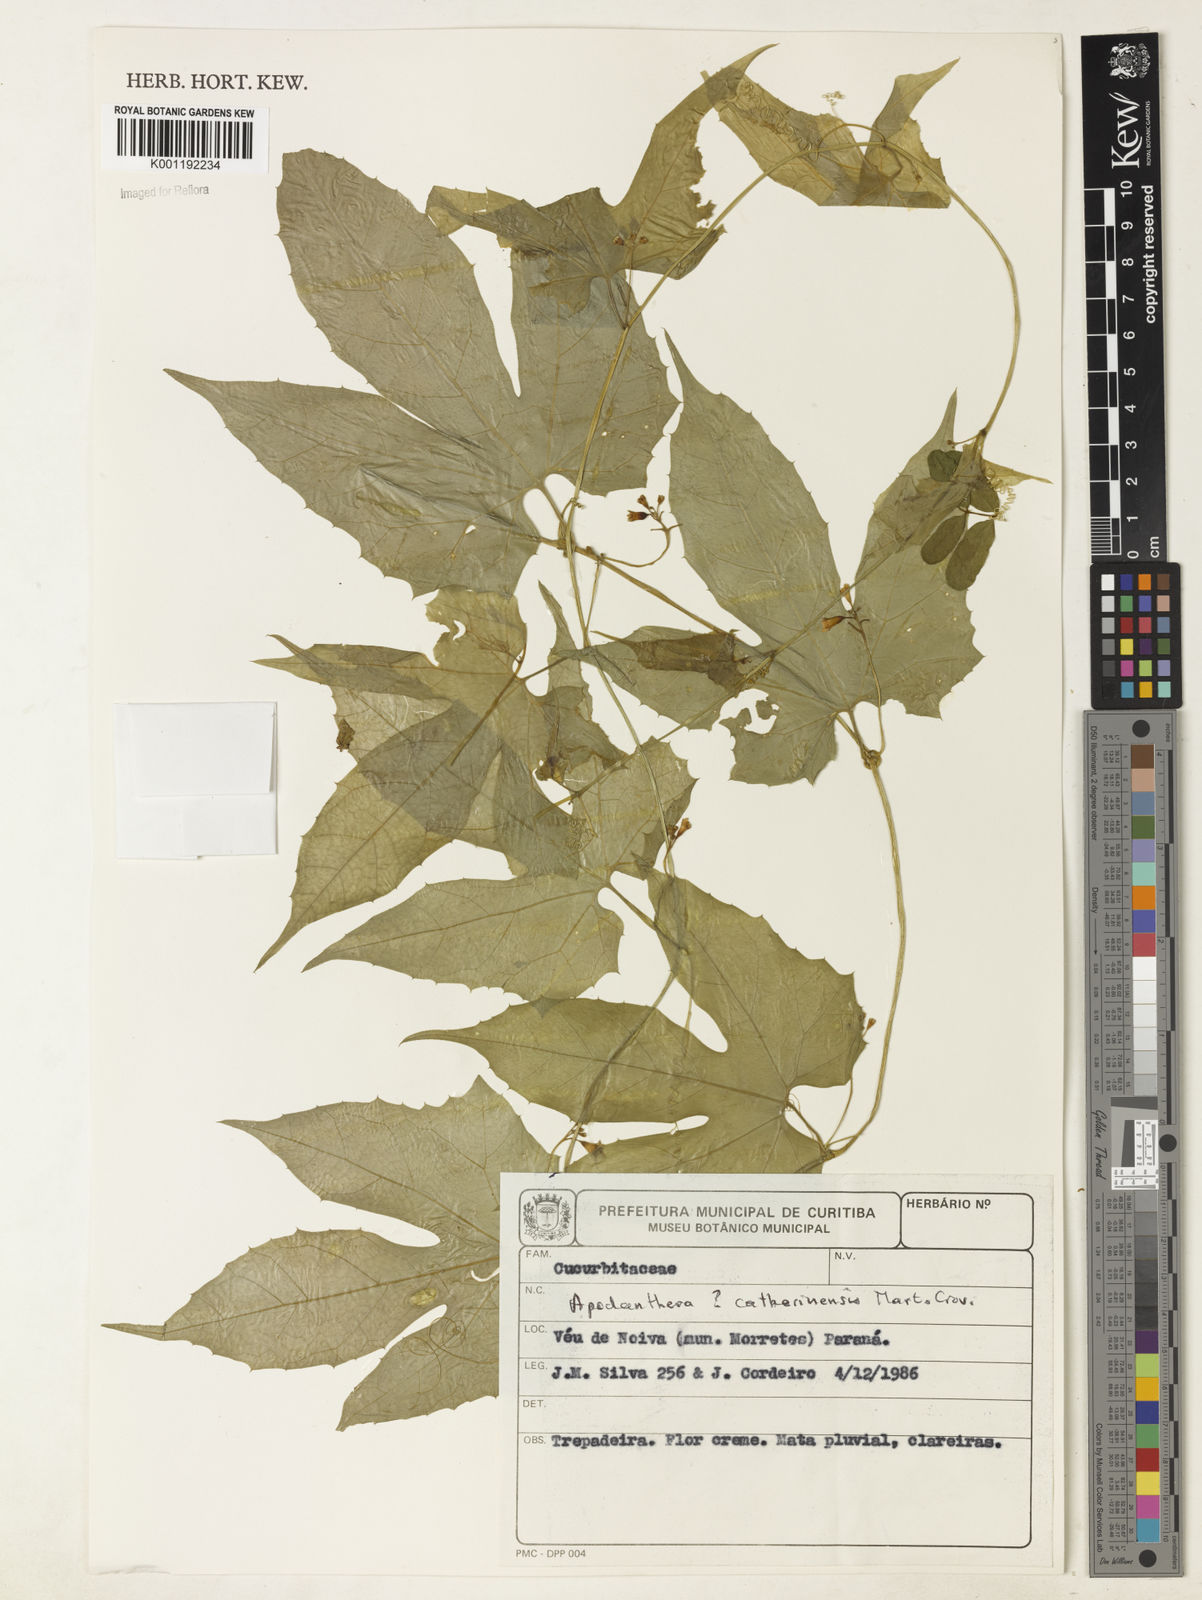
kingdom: Plantae
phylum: Tracheophyta
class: Magnoliopsida
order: Cucurbitales
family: Cucurbitaceae
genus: Apodanthera
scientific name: Apodanthera catharinensis
